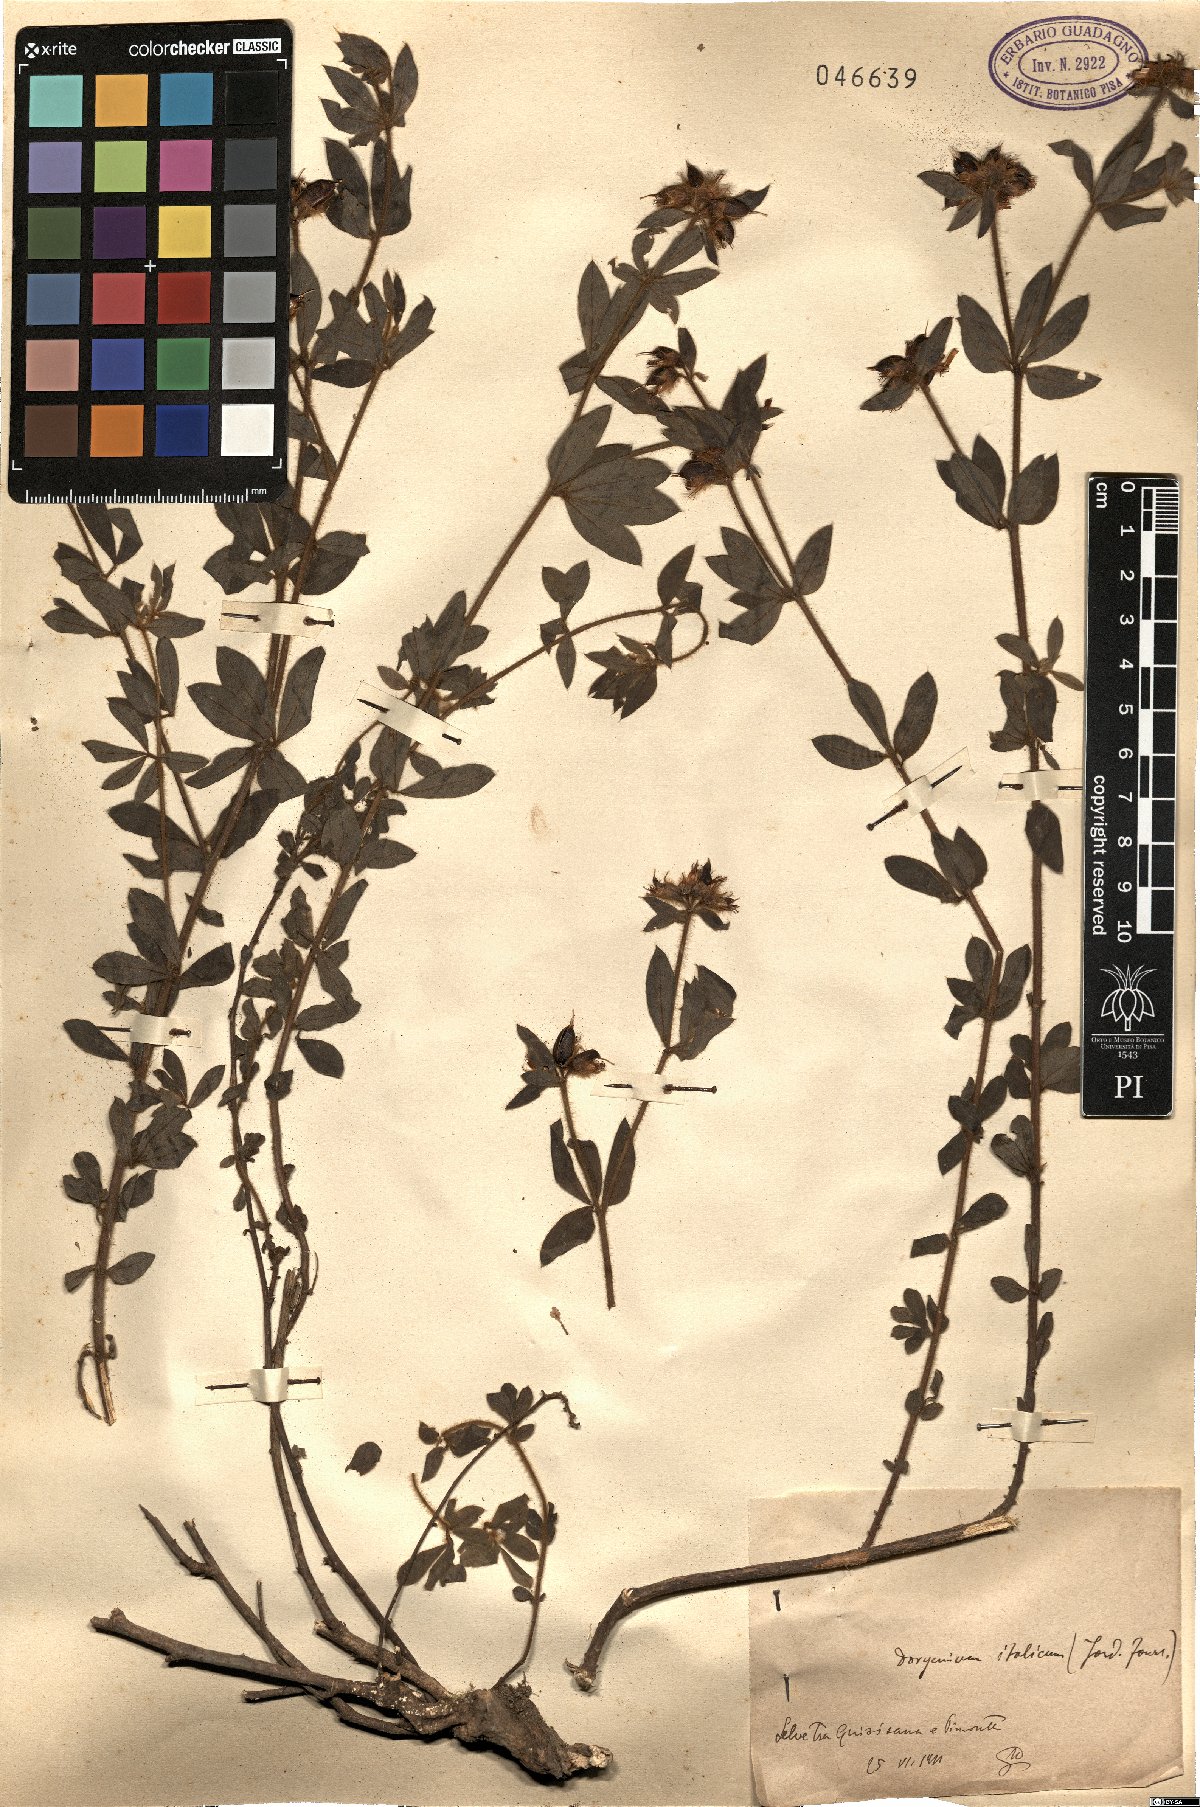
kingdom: Plantae
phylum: Tracheophyta
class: Magnoliopsida
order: Fabales
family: Fabaceae
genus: Lotus
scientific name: Lotus
